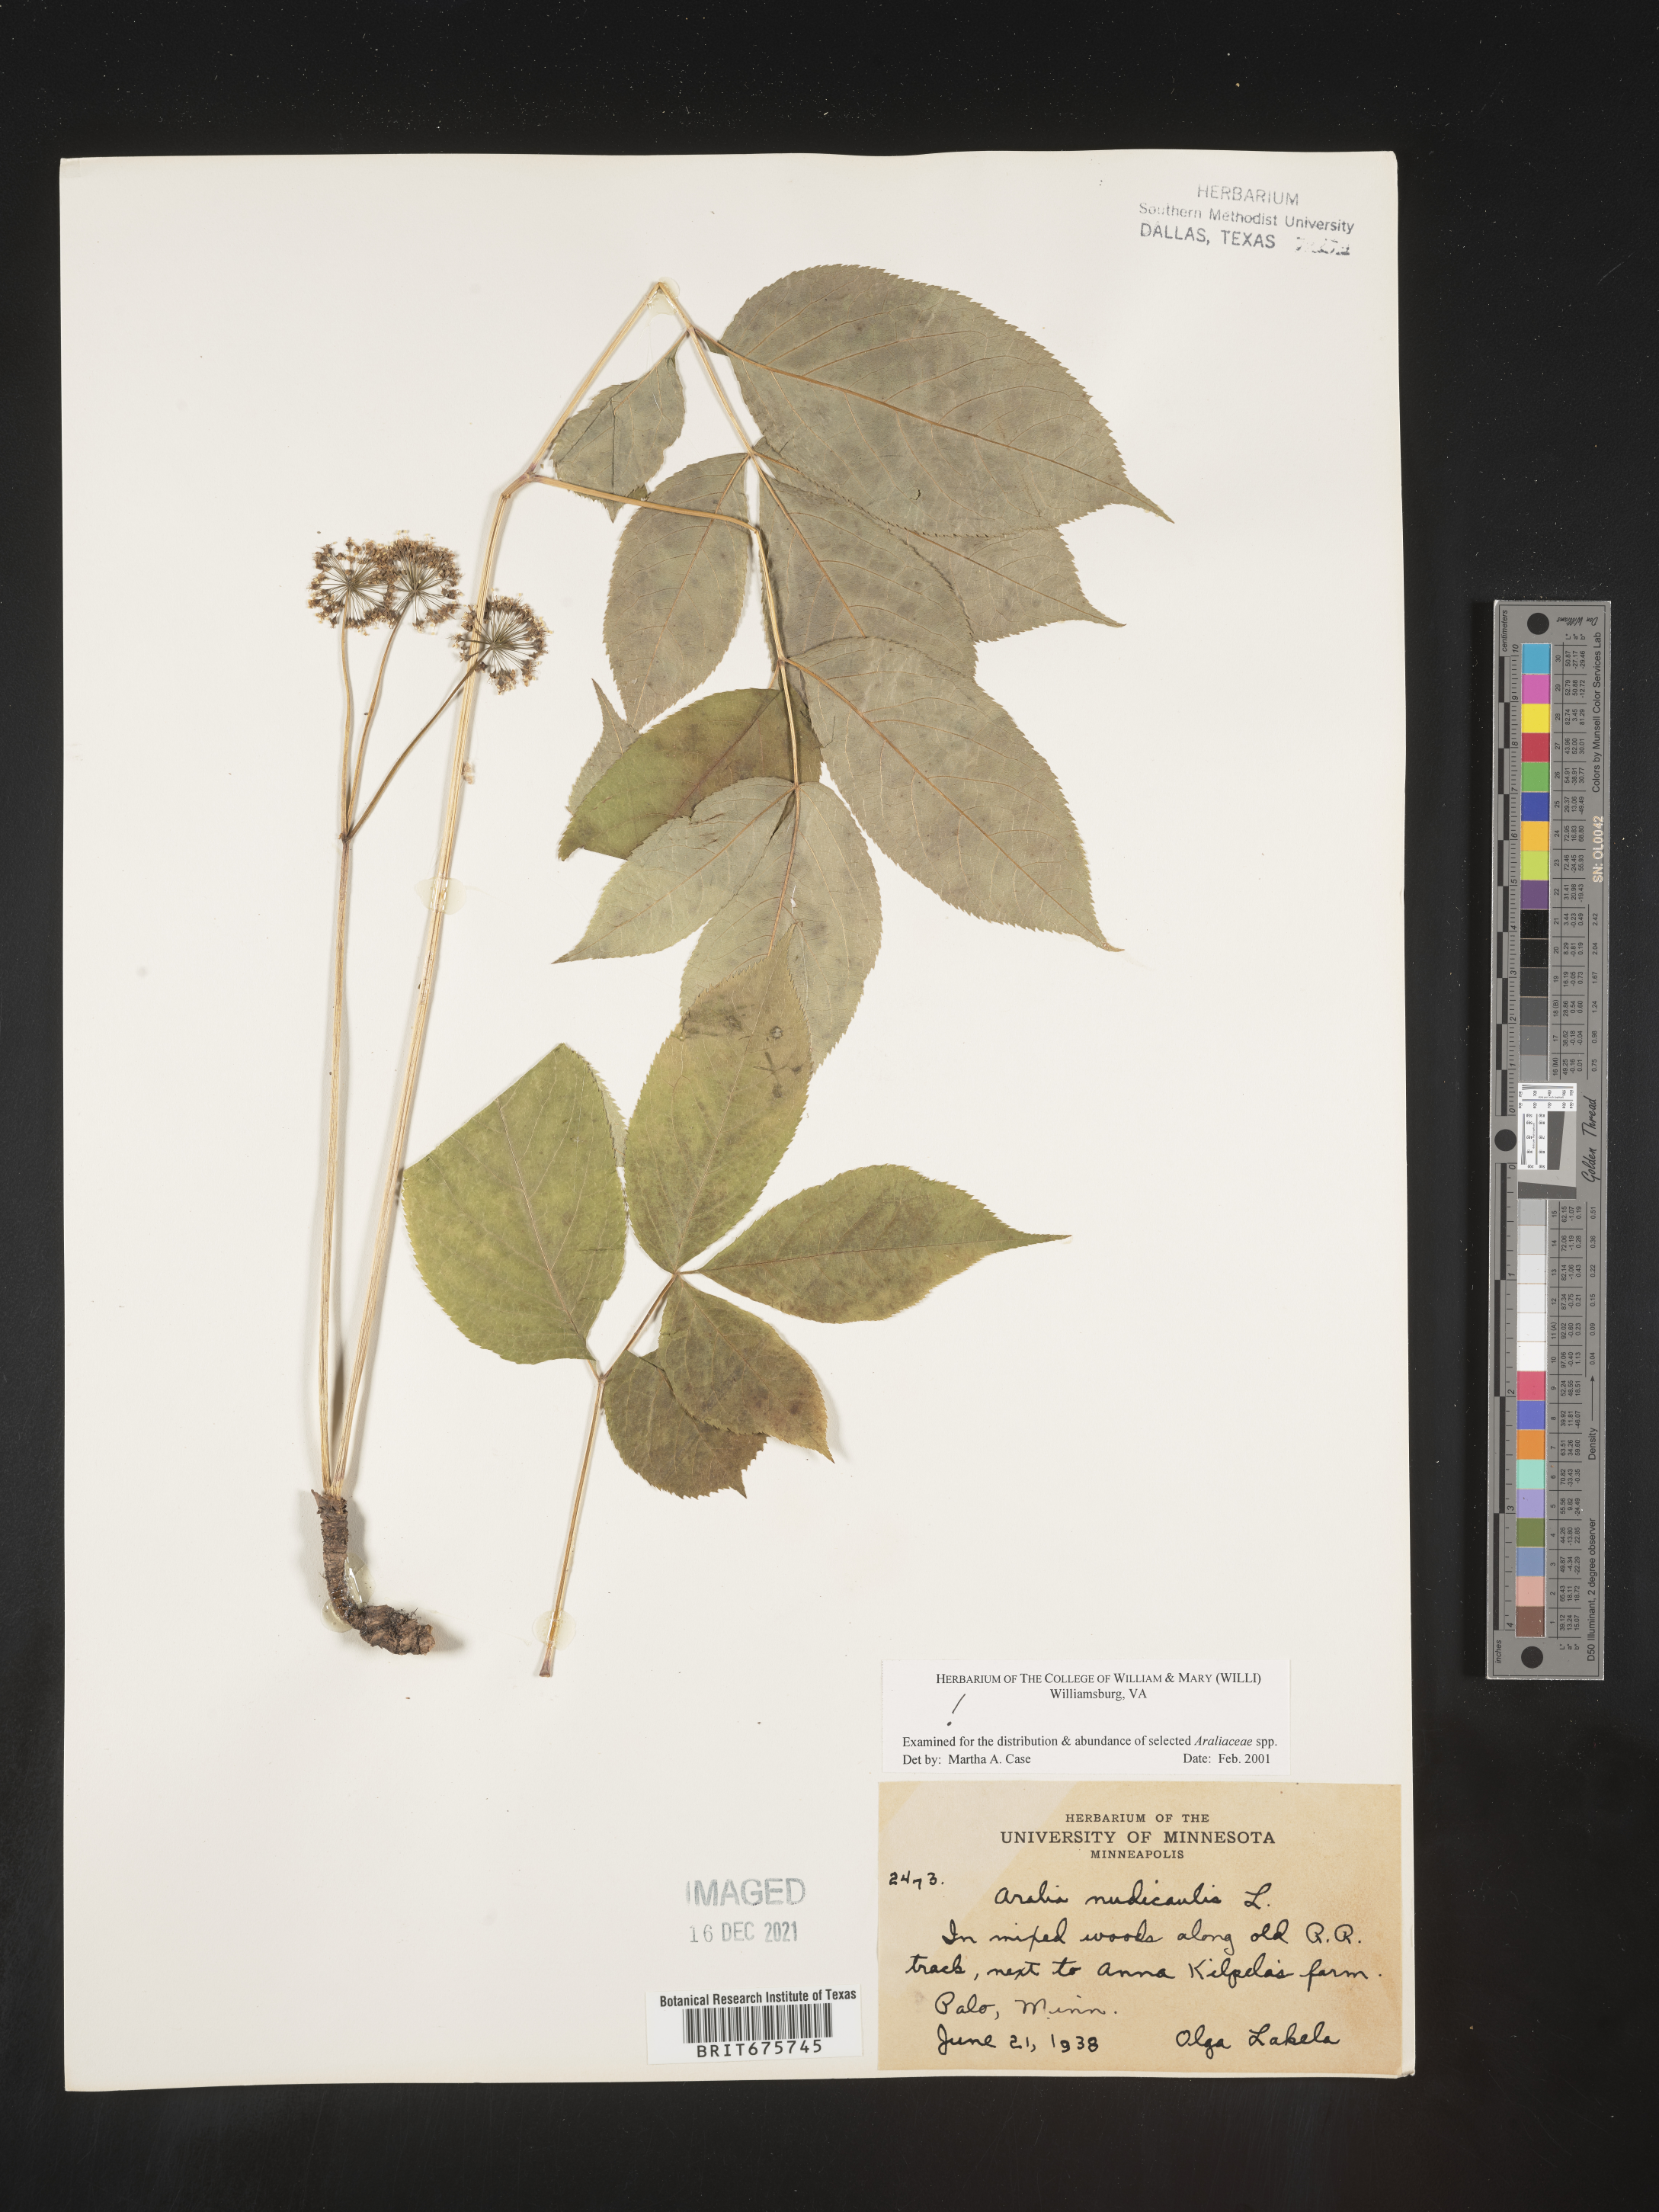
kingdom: Plantae
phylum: Tracheophyta
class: Magnoliopsida
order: Apiales
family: Araliaceae
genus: Aralia
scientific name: Aralia nudicaulis
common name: Wild sarsaparilla
